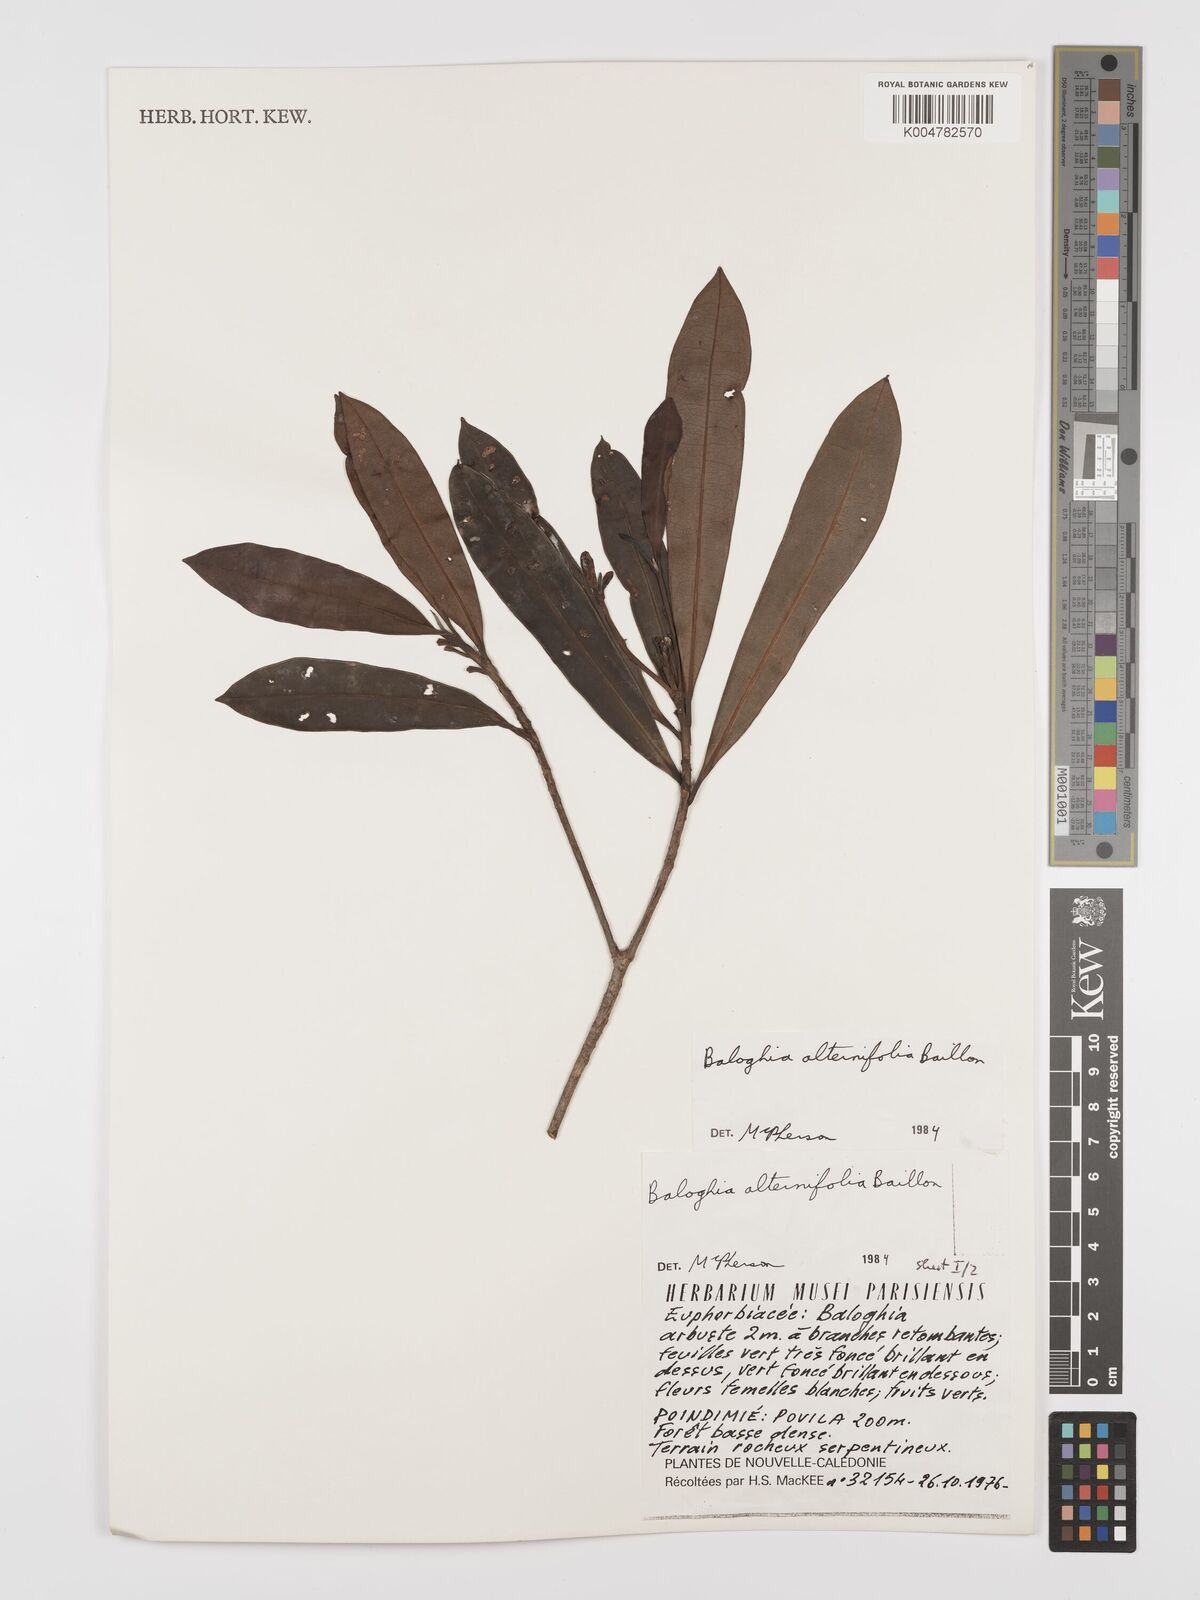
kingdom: Plantae
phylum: Tracheophyta
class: Magnoliopsida
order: Malpighiales
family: Euphorbiaceae
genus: Baloghia
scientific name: Baloghia alternifolia
